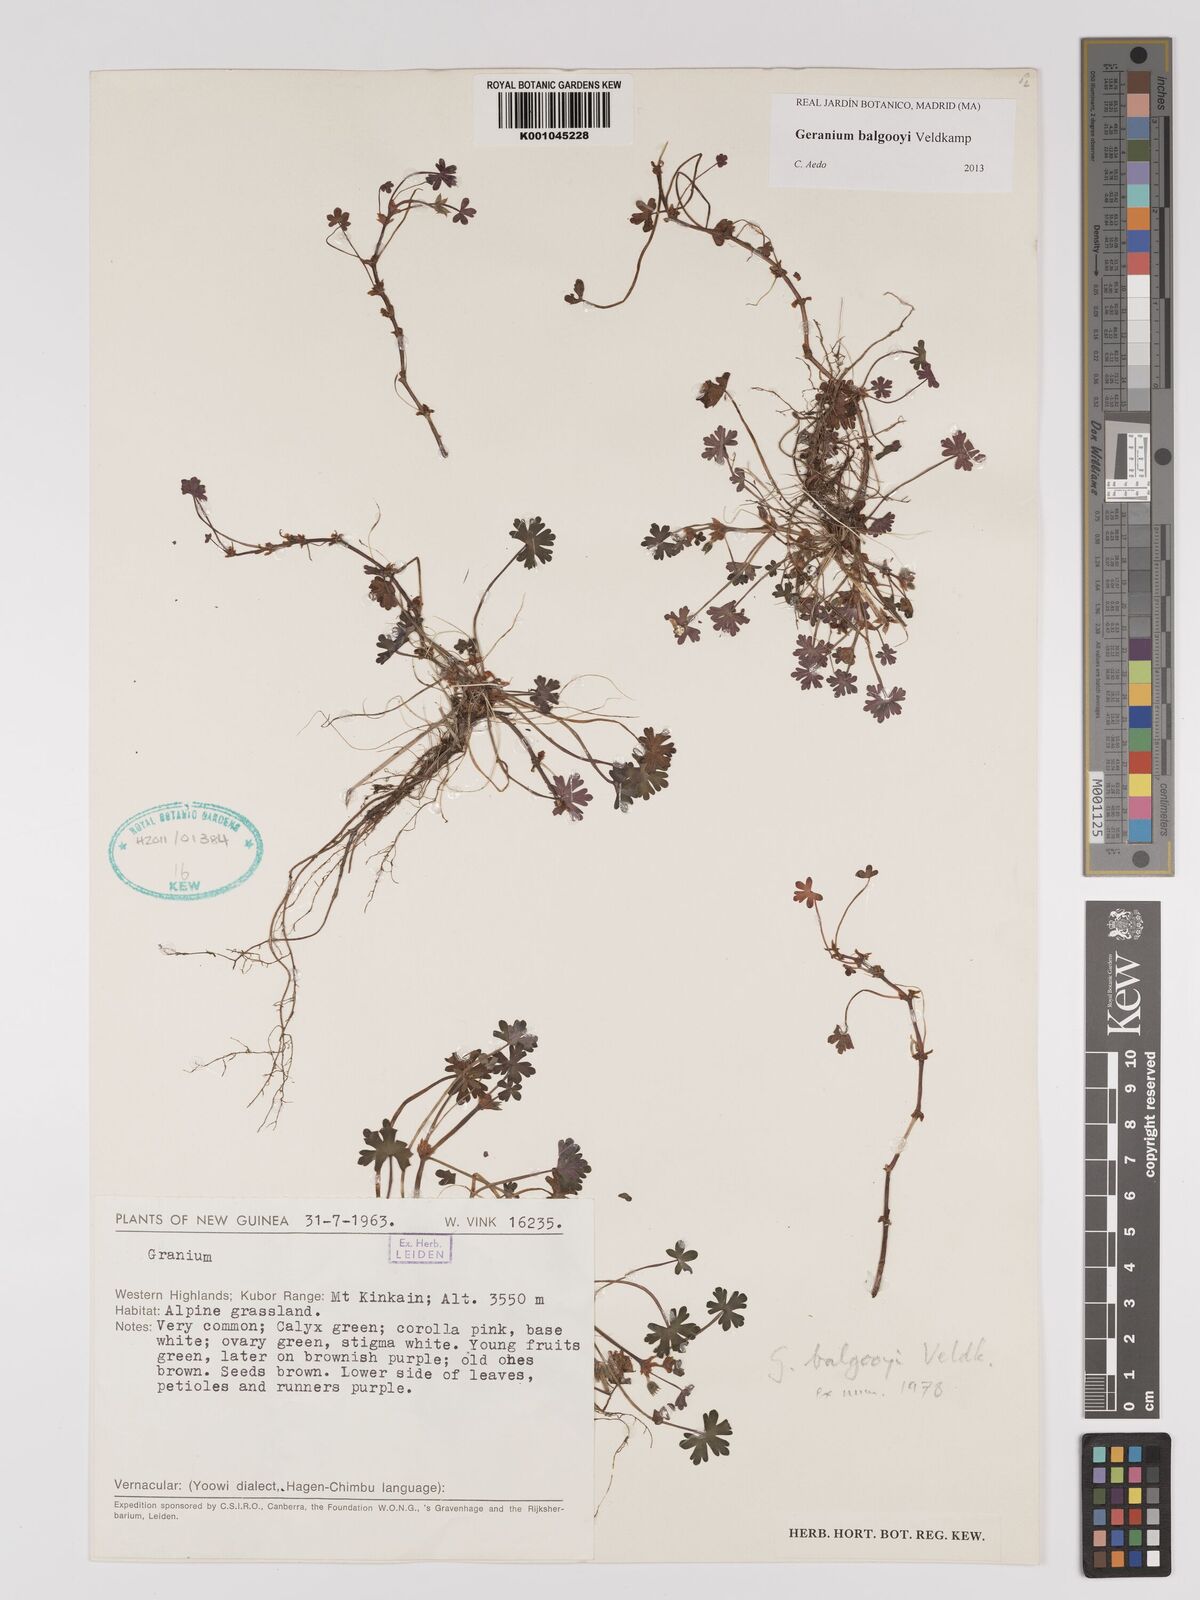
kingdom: Plantae
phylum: Tracheophyta
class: Magnoliopsida
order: Geraniales
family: Geraniaceae
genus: Geranium
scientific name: Geranium balgooyi
